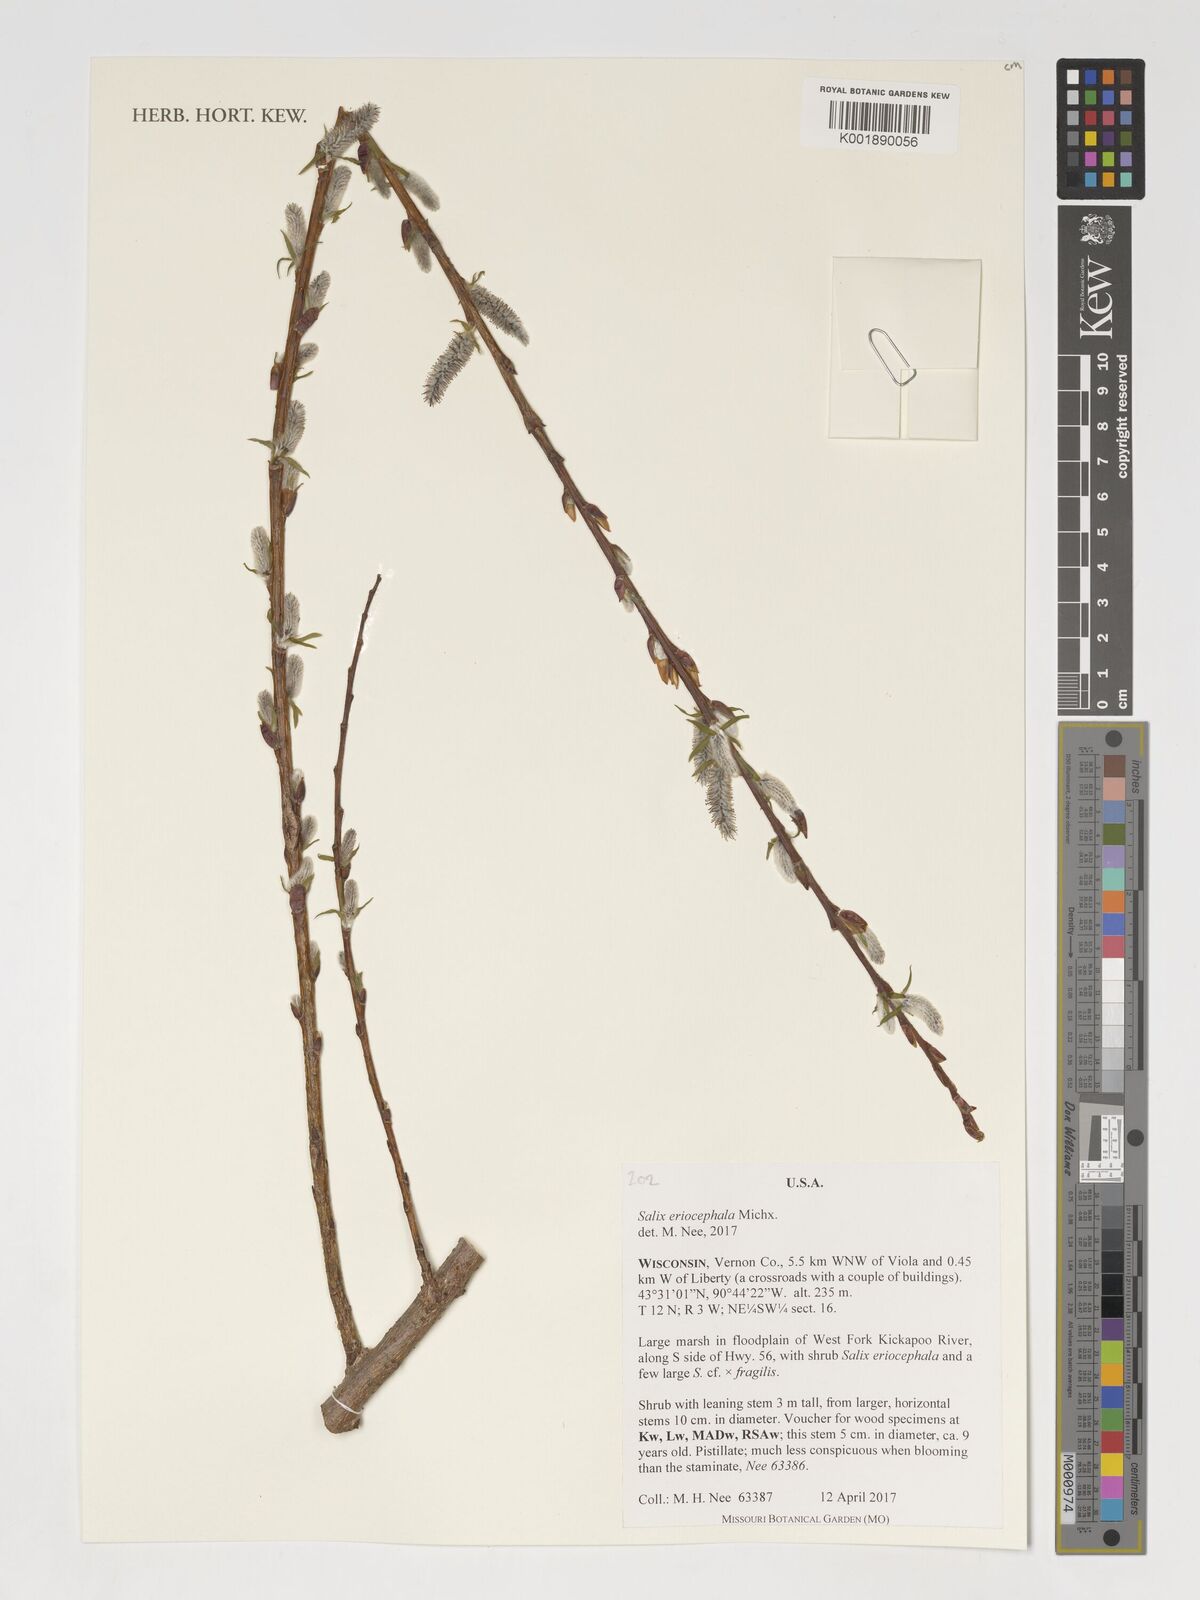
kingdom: Plantae
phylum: Tracheophyta
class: Magnoliopsida
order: Malpighiales
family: Salicaceae
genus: Salix
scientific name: Salix ligulifolia
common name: Strap-leaf willow
